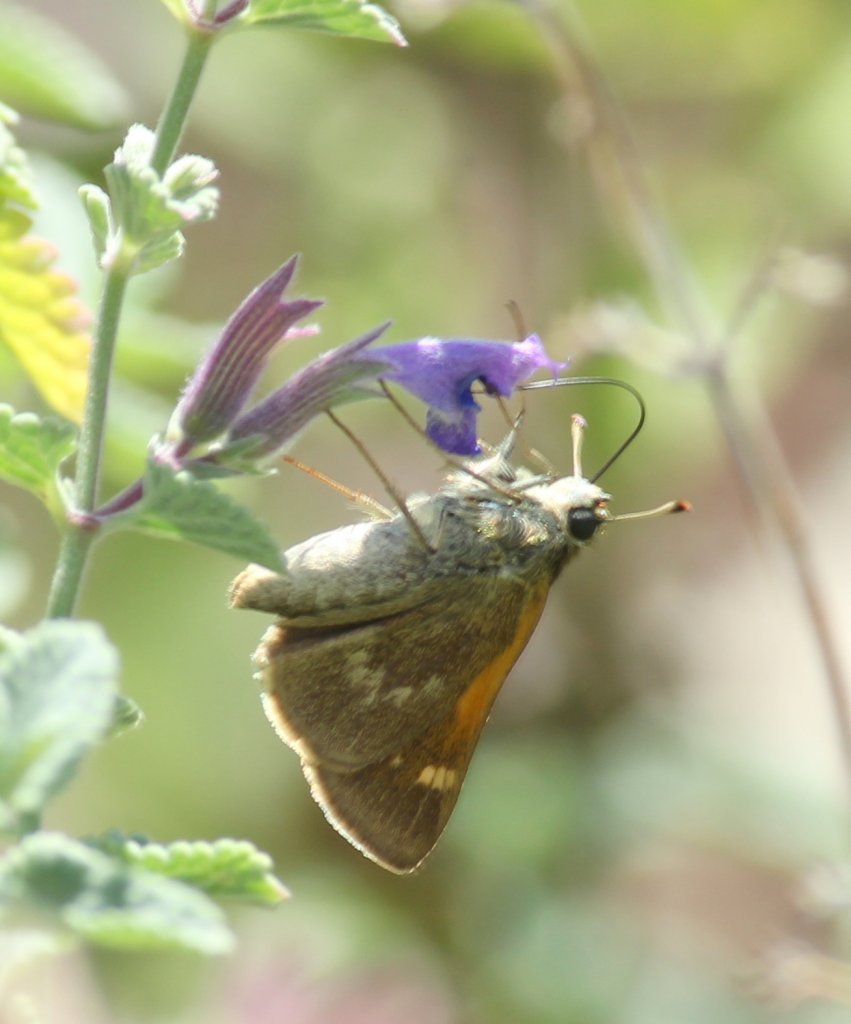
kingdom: Animalia
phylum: Arthropoda
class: Insecta
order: Lepidoptera
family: Hesperiidae
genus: Polites
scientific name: Polites themistocles
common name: Tawny-edged Skipper
